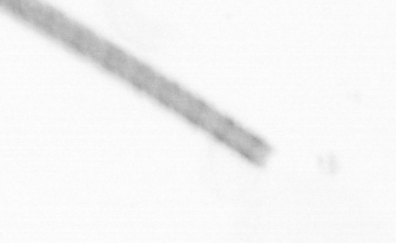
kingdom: Chromista
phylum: Ochrophyta
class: Bacillariophyceae
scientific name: Bacillariophyceae
